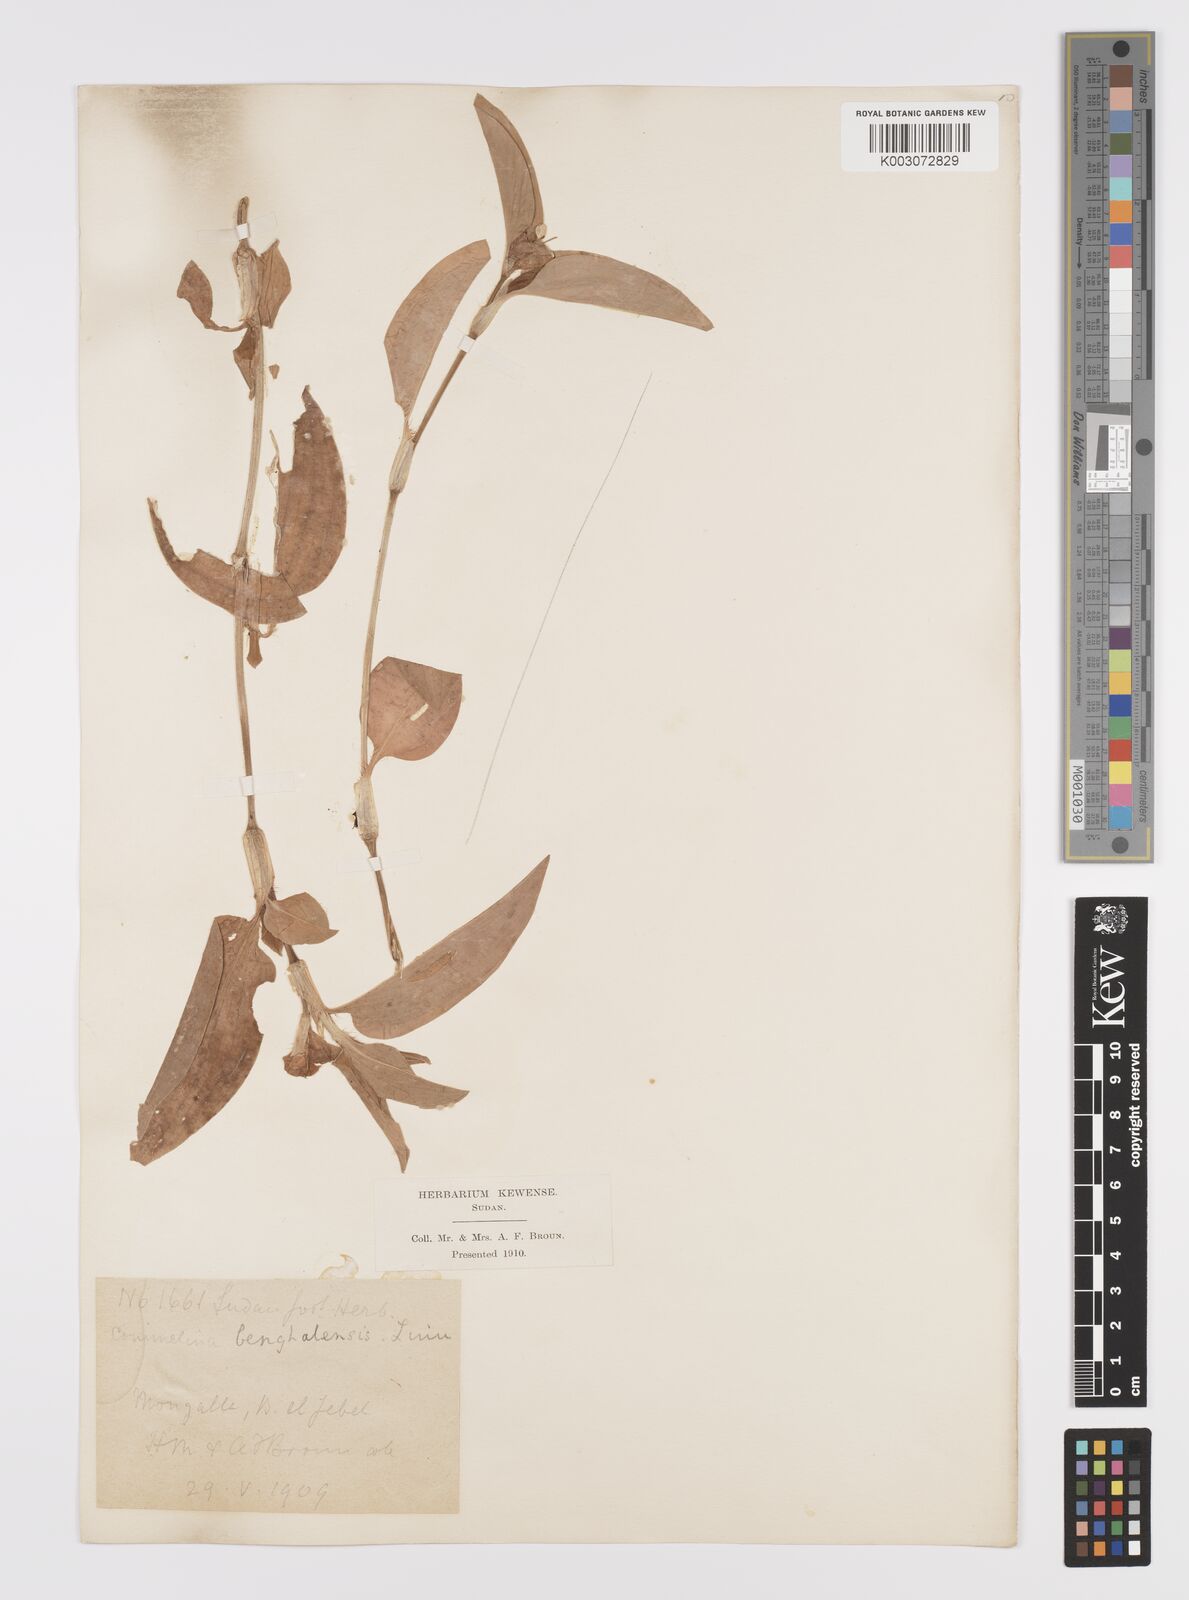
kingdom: Plantae
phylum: Tracheophyta
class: Liliopsida
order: Commelinales
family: Commelinaceae
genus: Commelina
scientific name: Commelina benghalensis
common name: Jio
